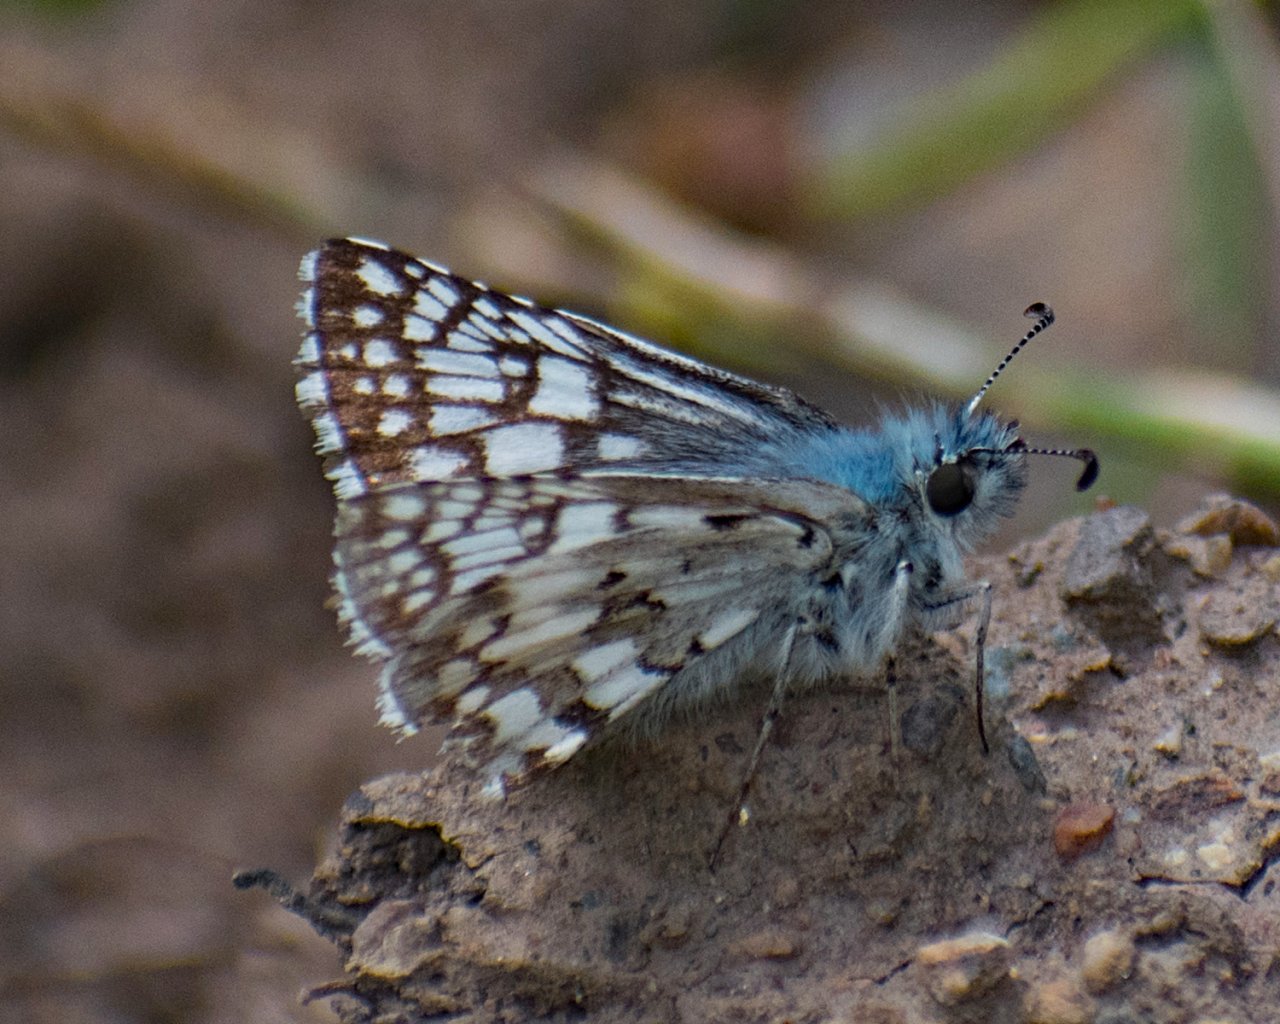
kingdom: Animalia
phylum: Arthropoda
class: Insecta
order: Lepidoptera
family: Hesperiidae
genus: Pyrgus
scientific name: Pyrgus communis
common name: Common Checkered-Skipper
